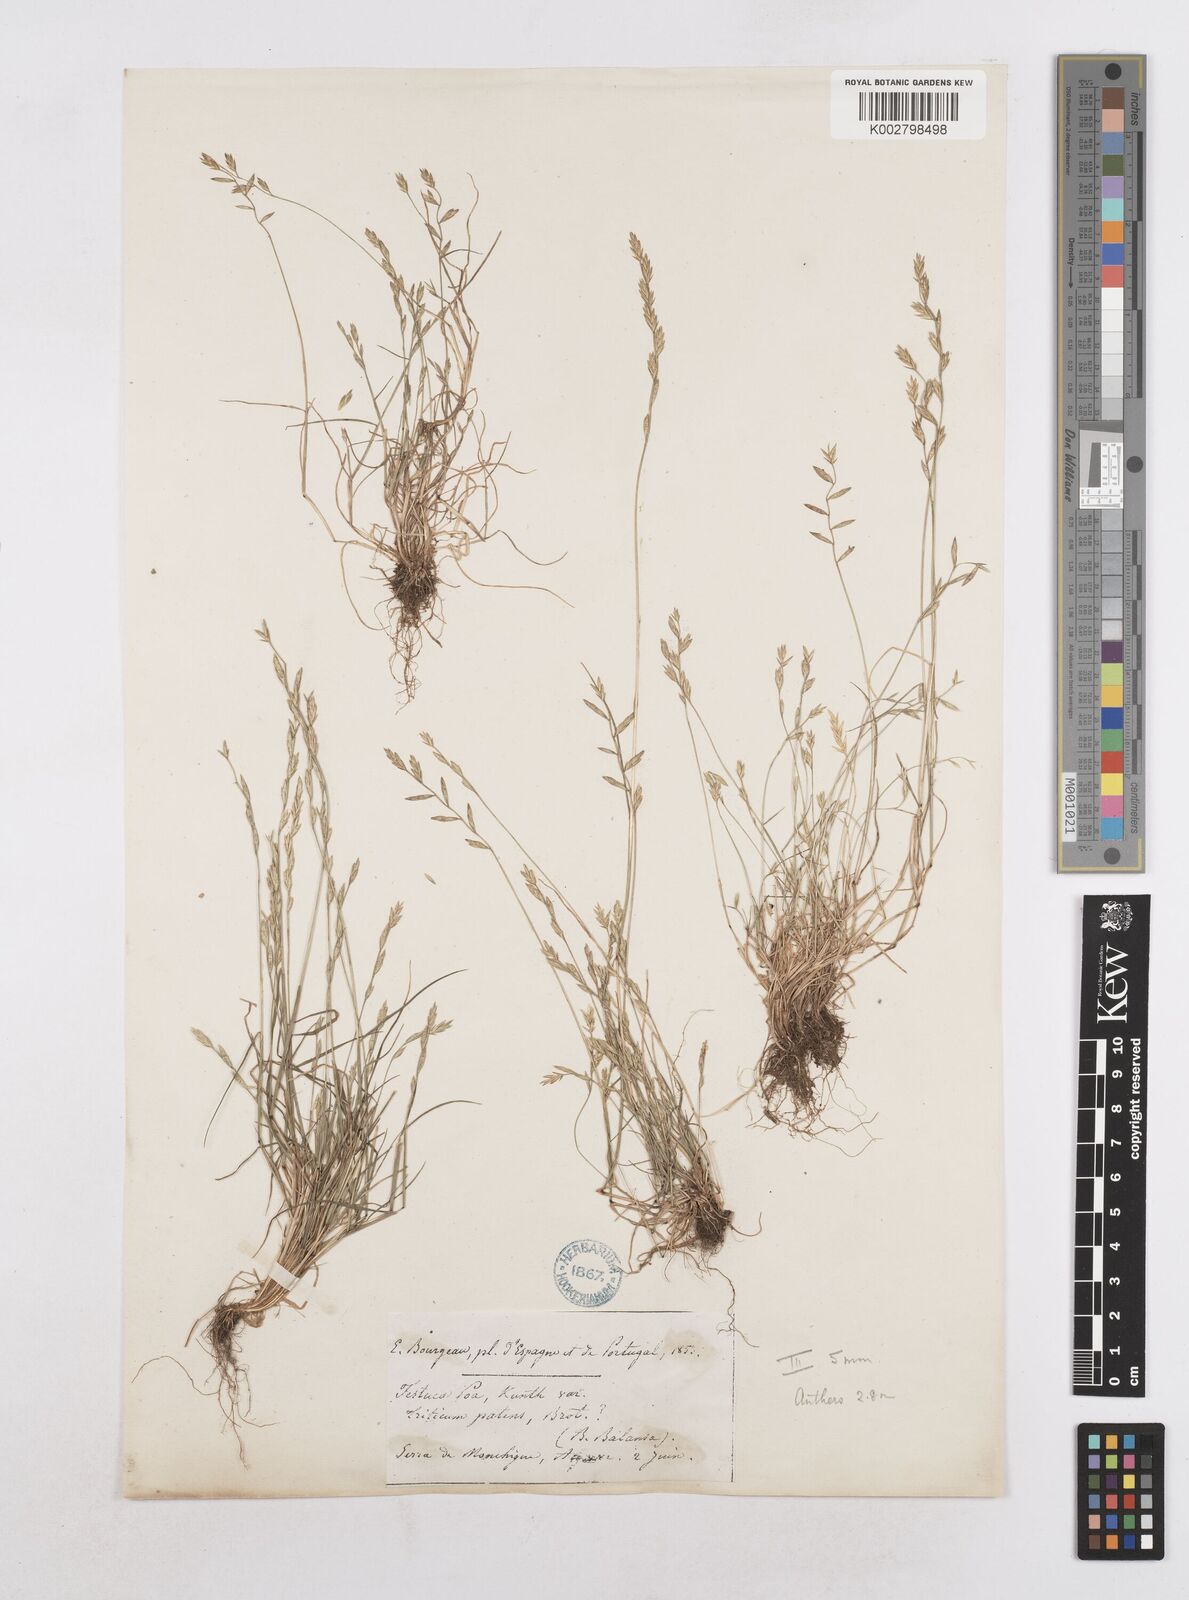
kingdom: Plantae
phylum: Tracheophyta
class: Liliopsida
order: Poales
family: Poaceae
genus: Festuca
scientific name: Festuca Micropyrum patens
